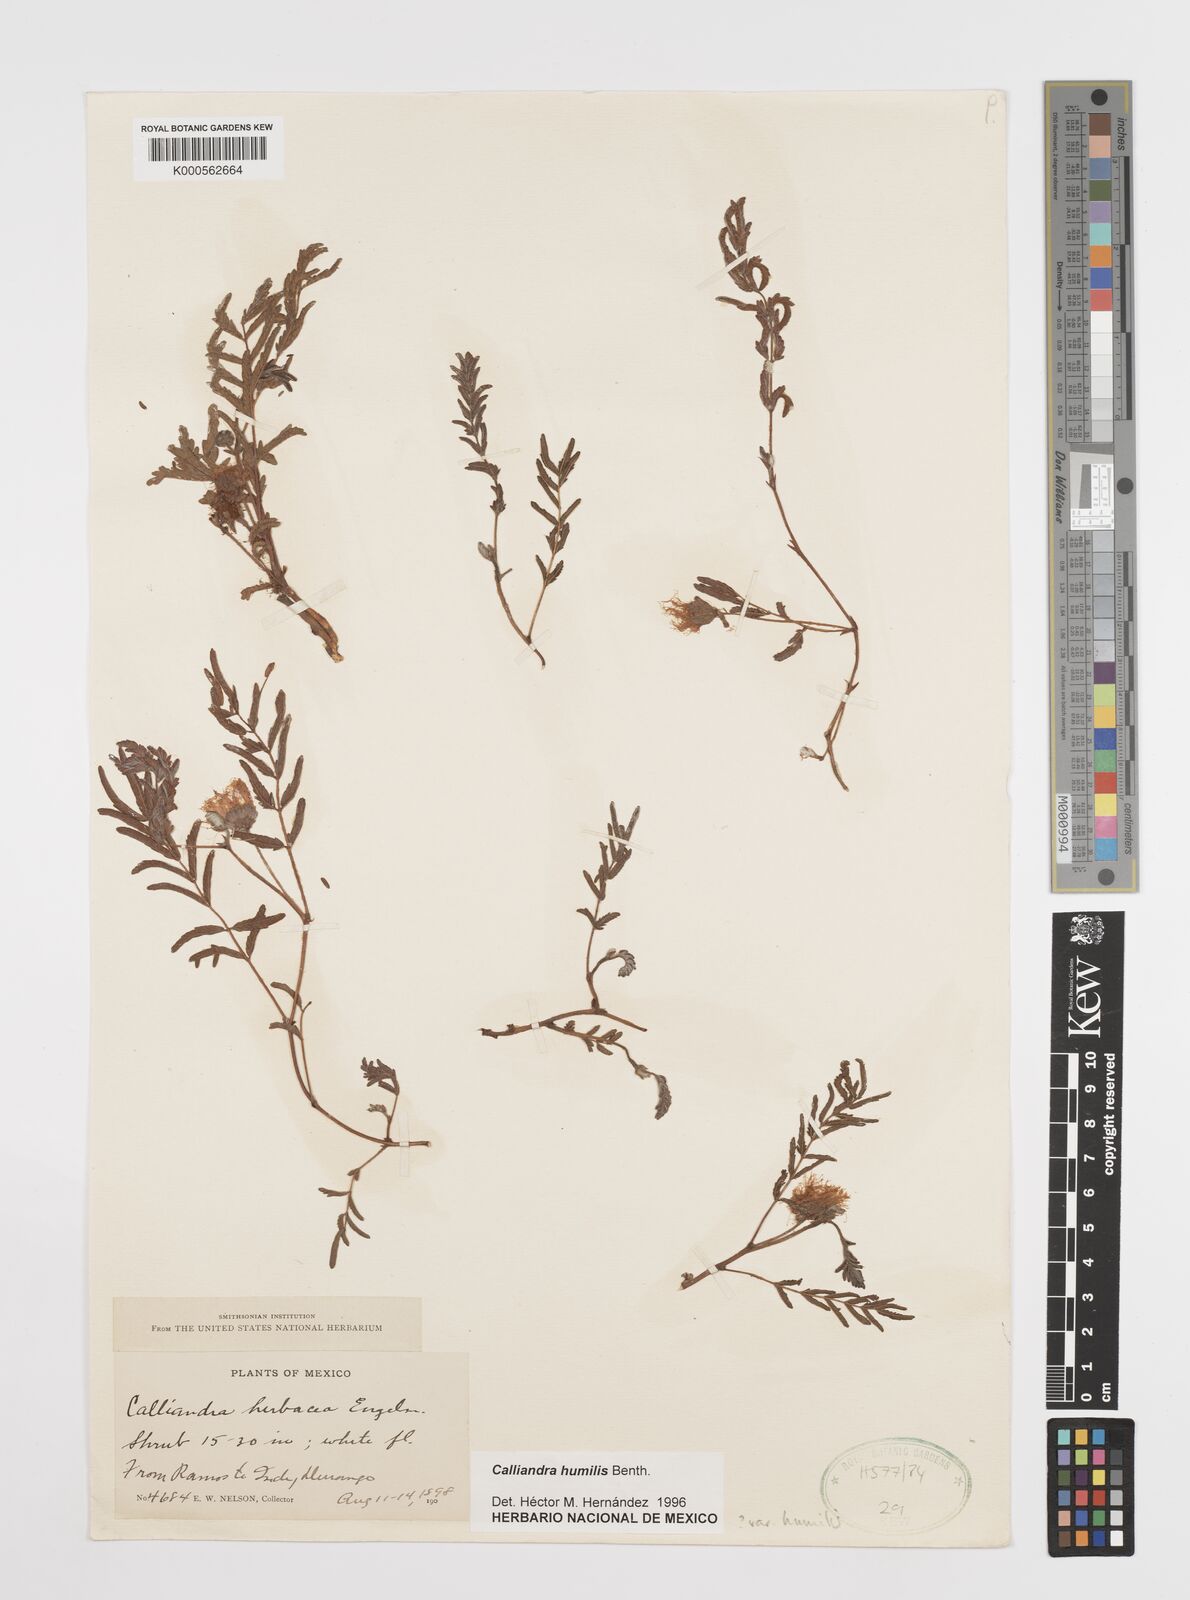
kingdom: Plantae
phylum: Tracheophyta
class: Magnoliopsida
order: Fabales
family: Fabaceae
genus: Calliandra
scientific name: Calliandra humilis
